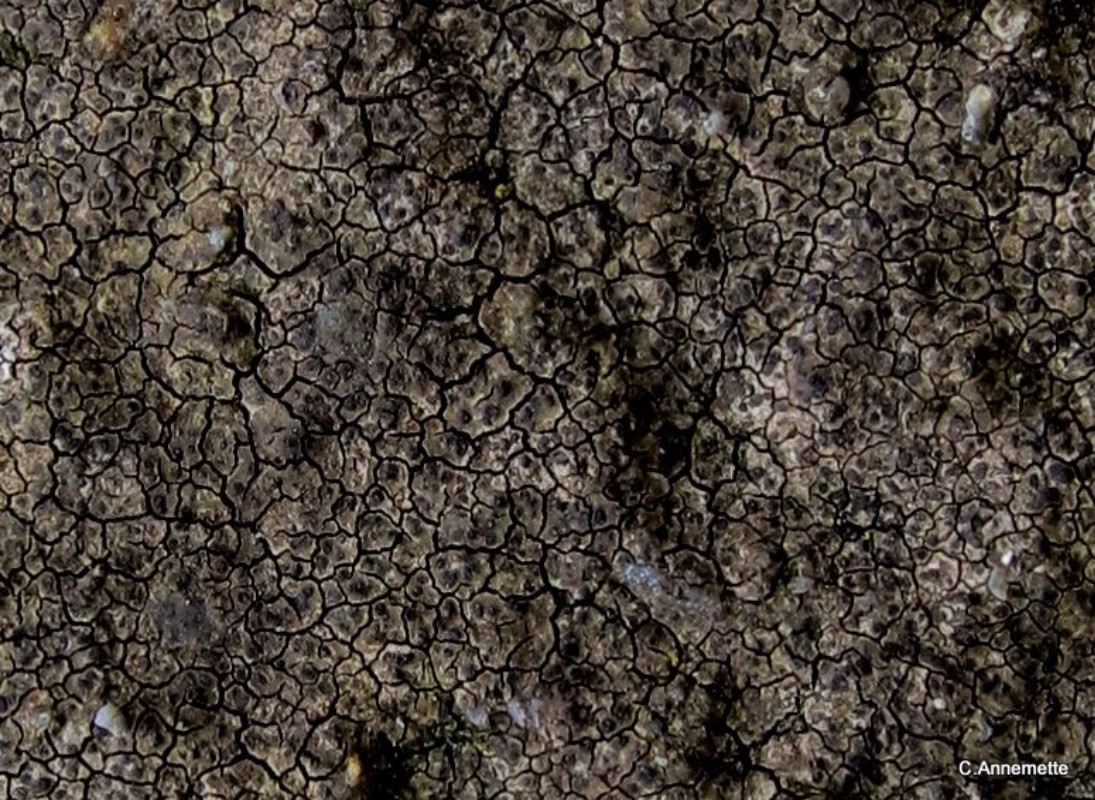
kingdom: Fungi
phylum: Ascomycota
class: Eurotiomycetes
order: Verrucariales
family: Verrucariaceae
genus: Verrucaria
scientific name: Verrucaria nigrescens
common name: sortbrun vortelav
